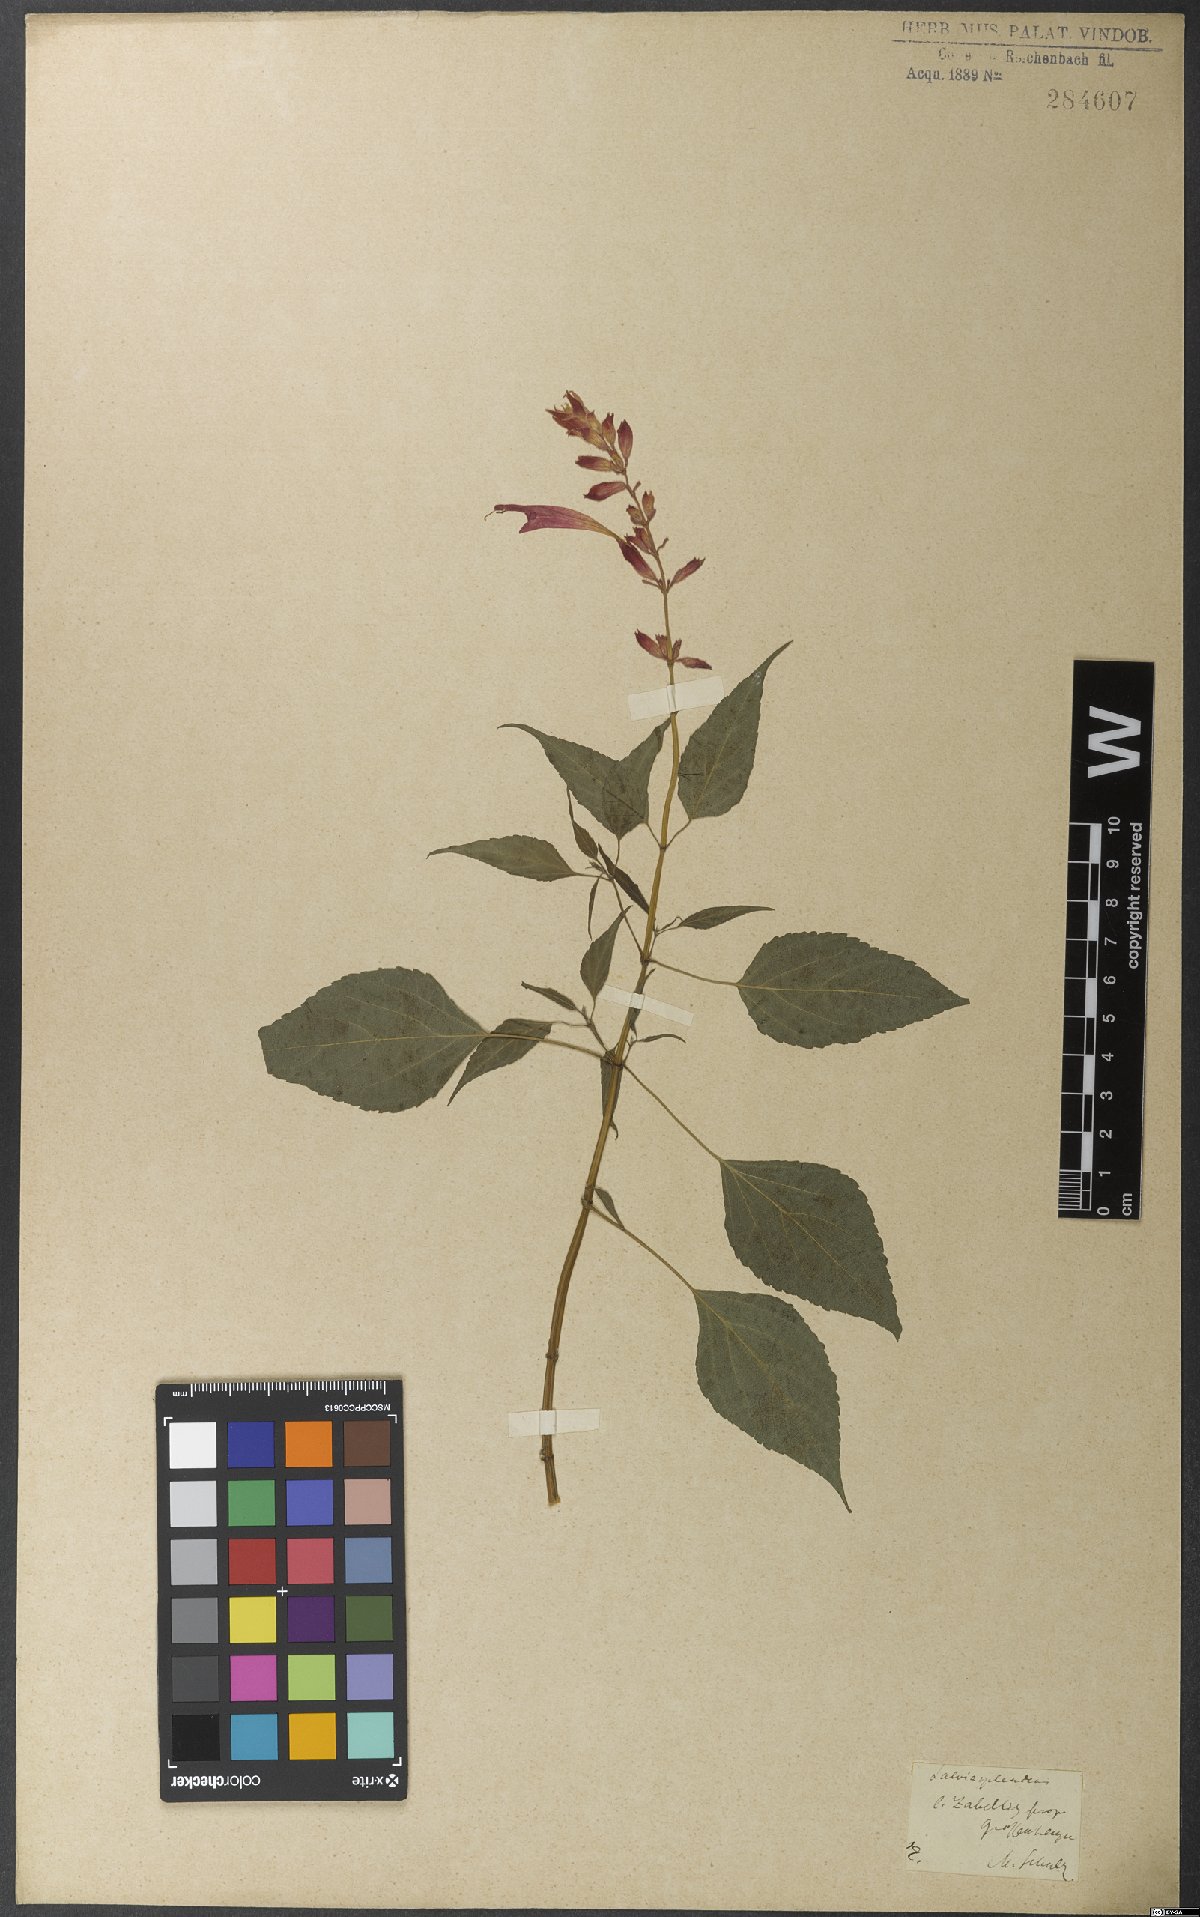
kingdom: Plantae
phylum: Tracheophyta
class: Magnoliopsida
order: Lamiales
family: Lamiaceae
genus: Salvia
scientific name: Salvia splendens
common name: Scarlet sage
